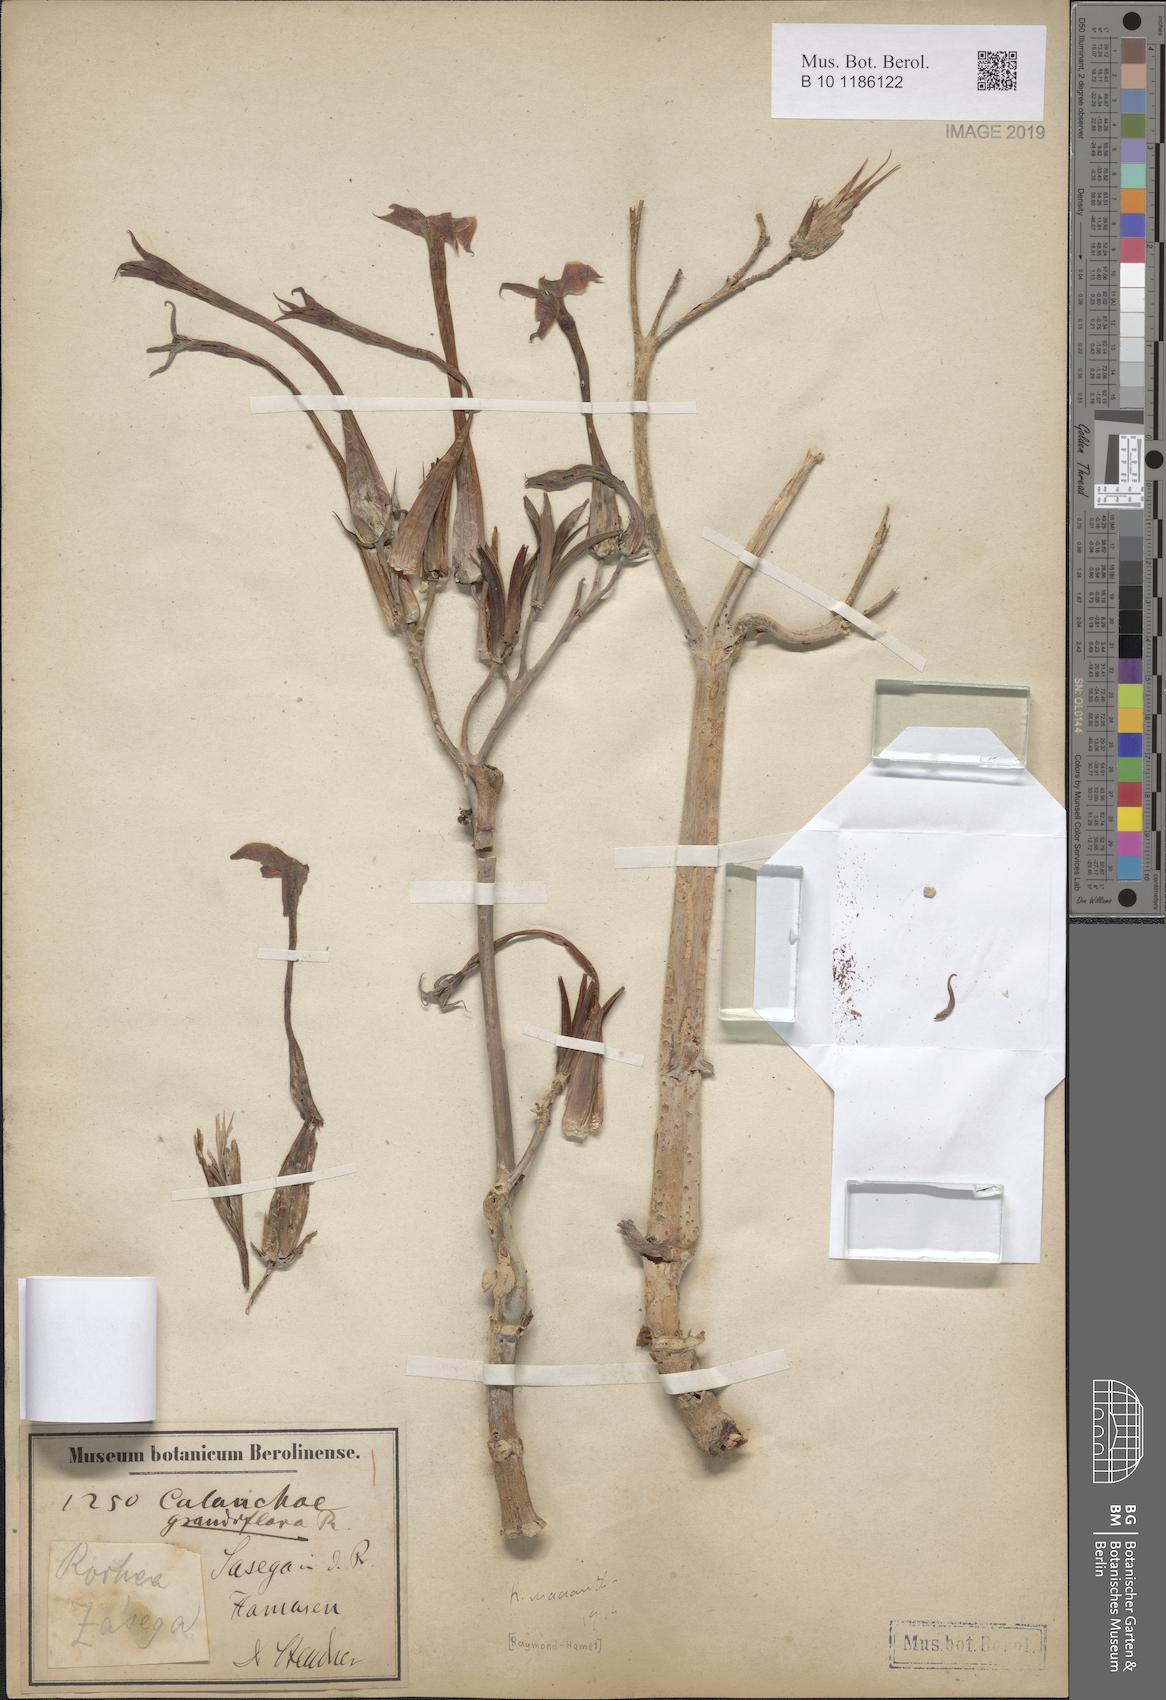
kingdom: Plantae
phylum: Tracheophyta
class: Magnoliopsida
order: Saxifragales
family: Crassulaceae
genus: Kalanchoe
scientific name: Kalanchoe marmorata
